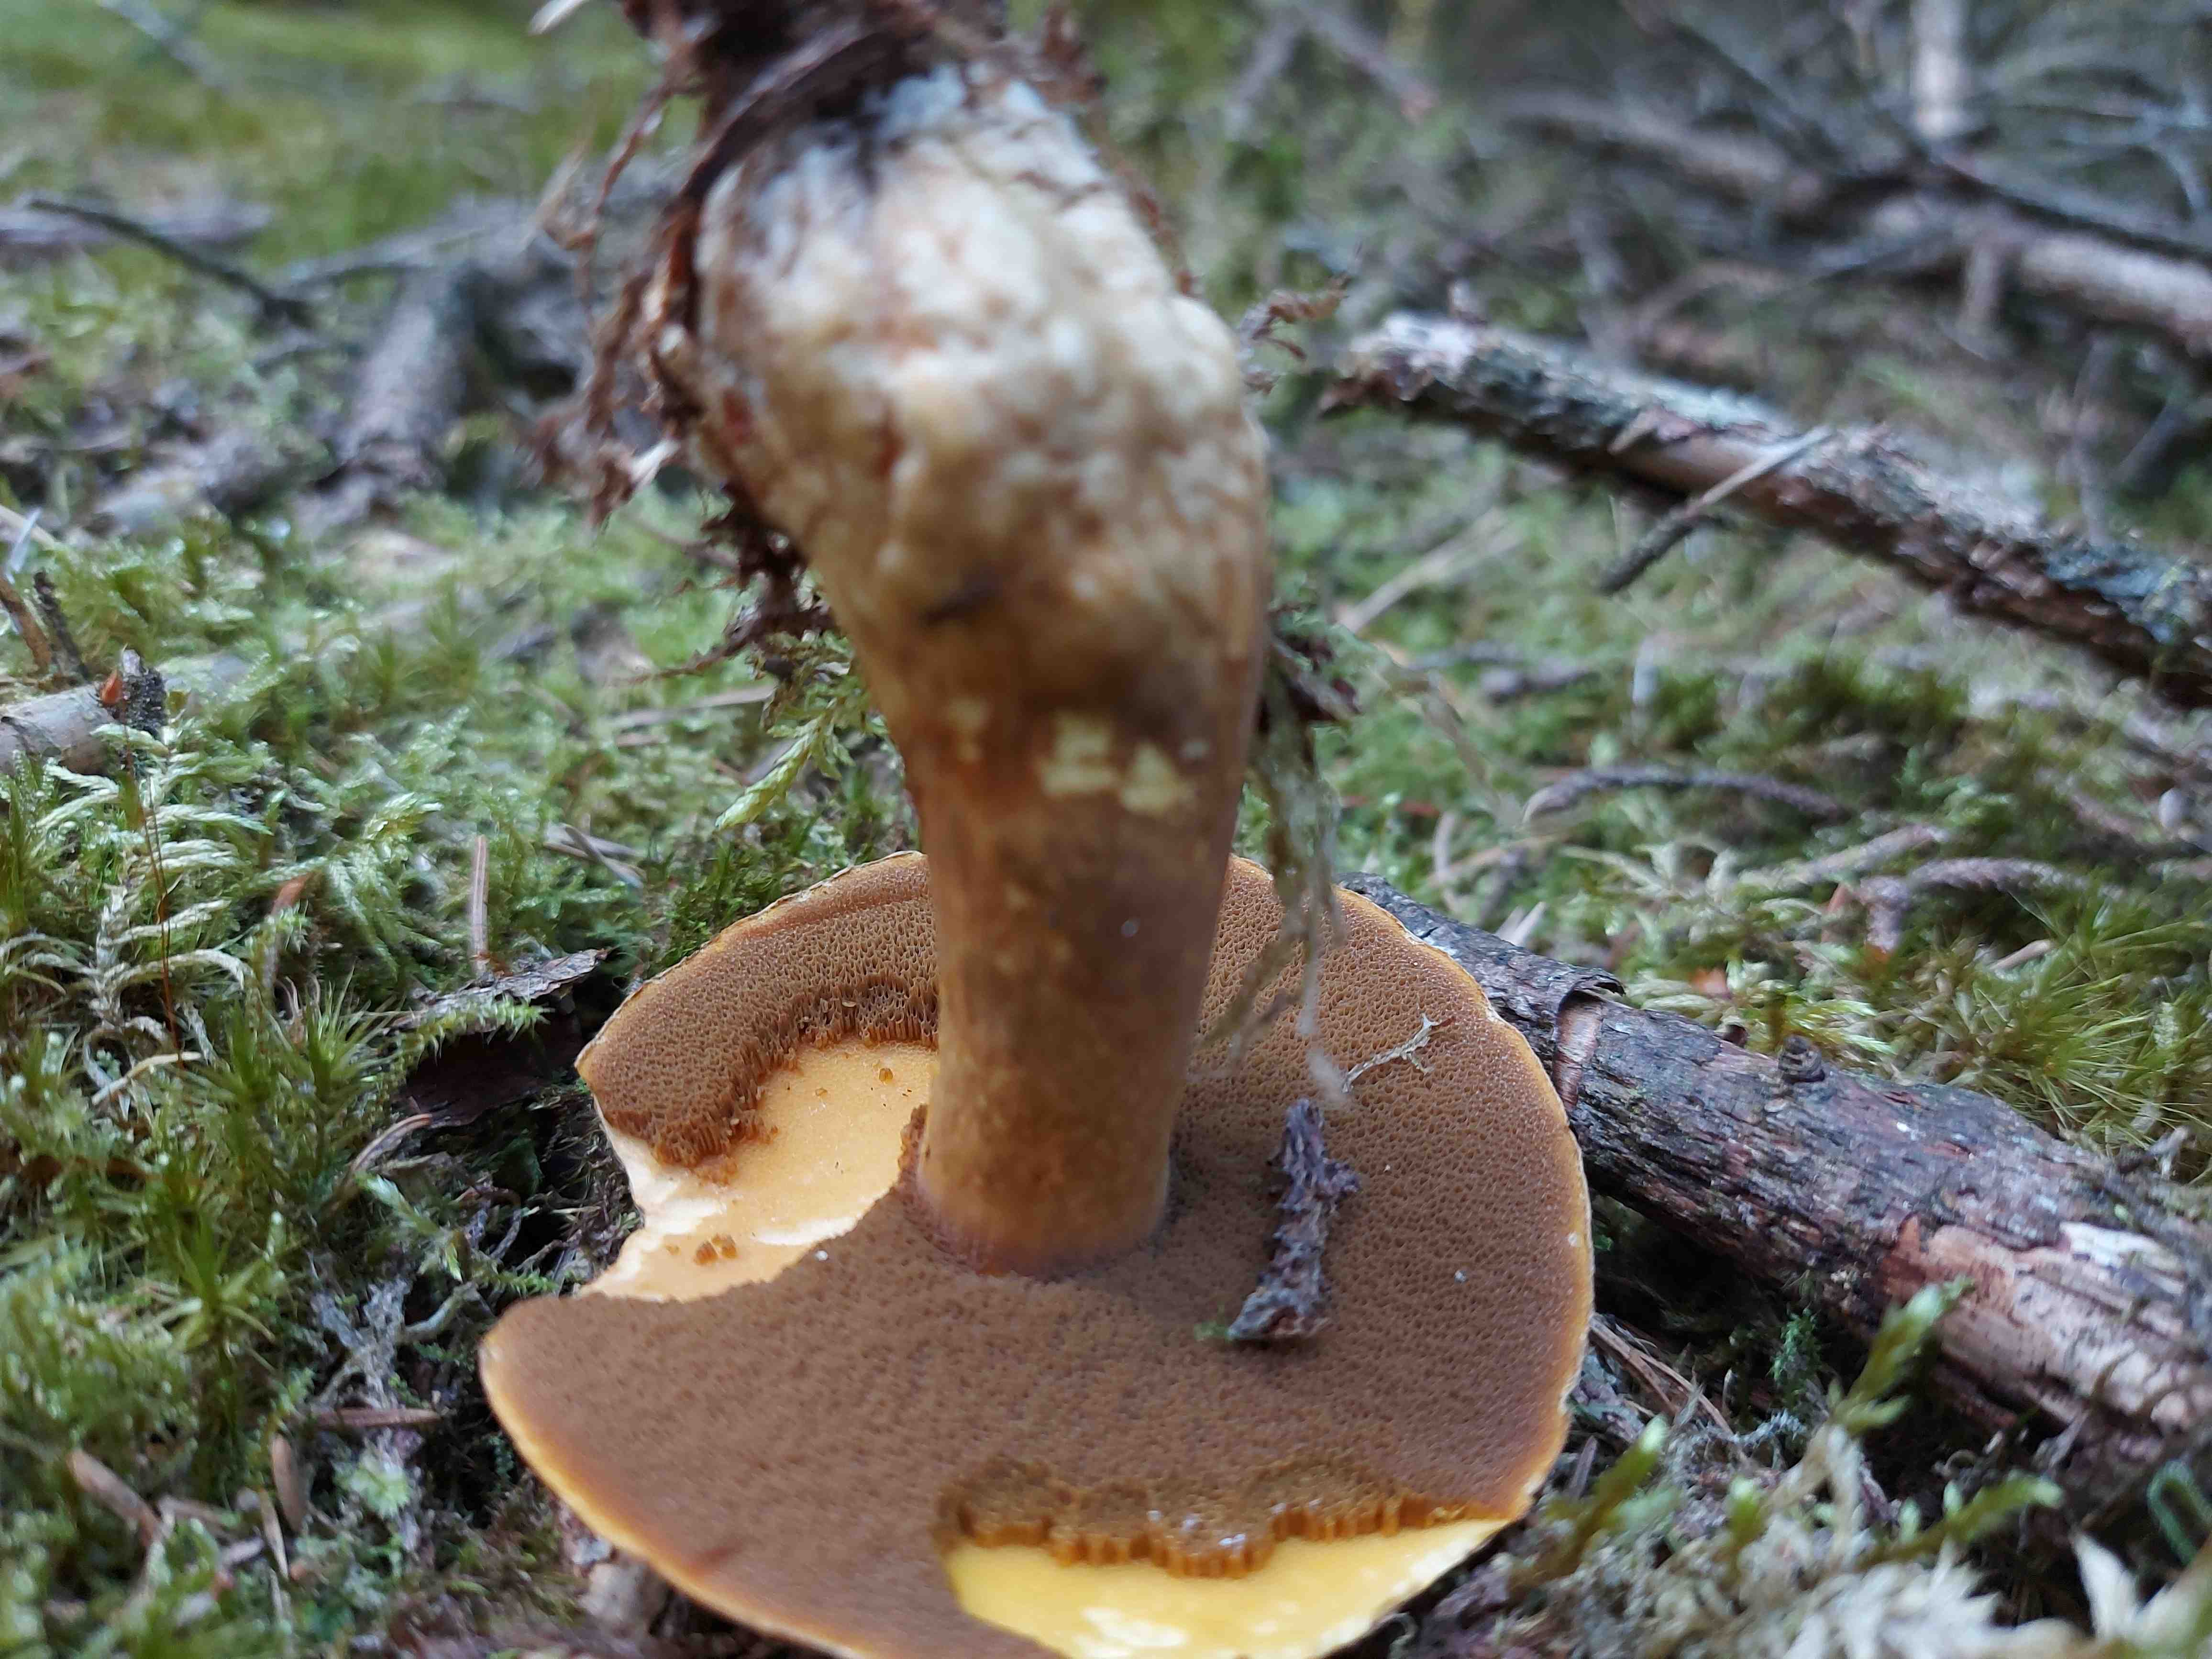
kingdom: Fungi
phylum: Basidiomycota
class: Agaricomycetes
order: Boletales
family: Suillaceae
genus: Suillus
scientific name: Suillus variegatus
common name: broget slimrørhat
